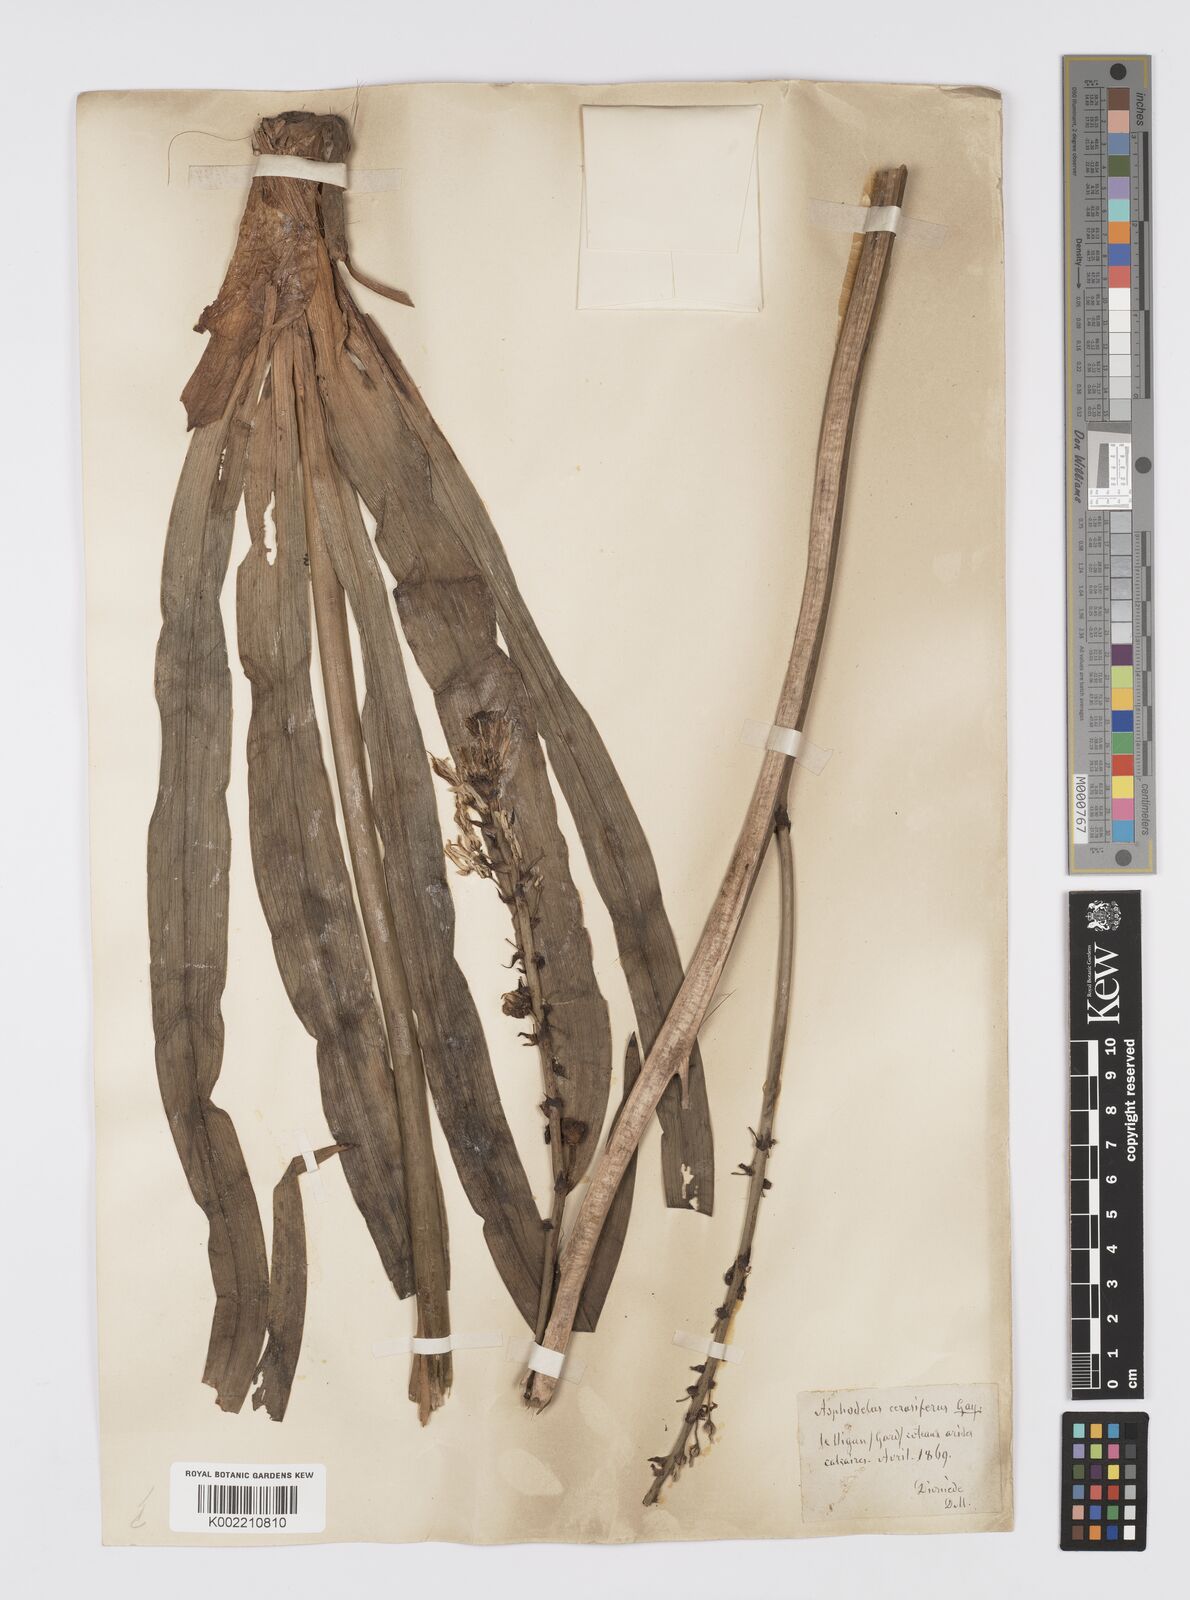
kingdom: Plantae
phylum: Tracheophyta
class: Liliopsida
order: Asparagales
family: Asphodelaceae
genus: Asphodelus
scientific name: Asphodelus cerasifer
